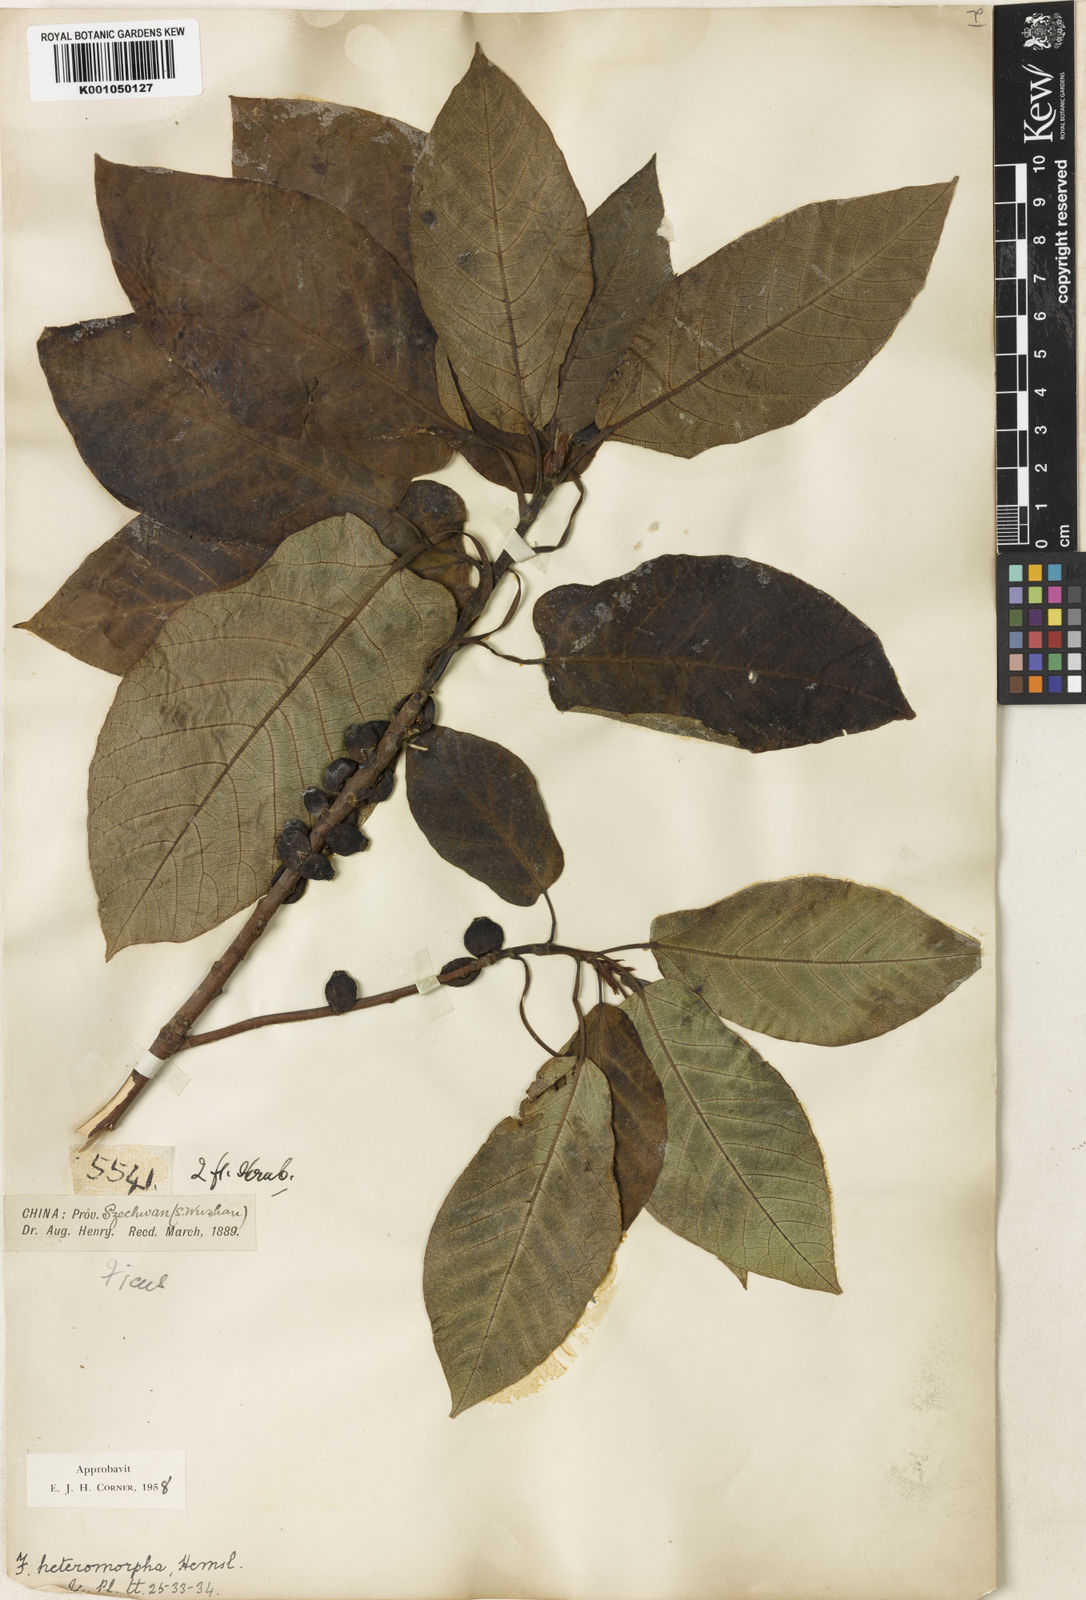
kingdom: Plantae
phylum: Tracheophyta
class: Magnoliopsida
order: Rosales
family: Moraceae
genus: Ficus
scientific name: Ficus heteromorpha
